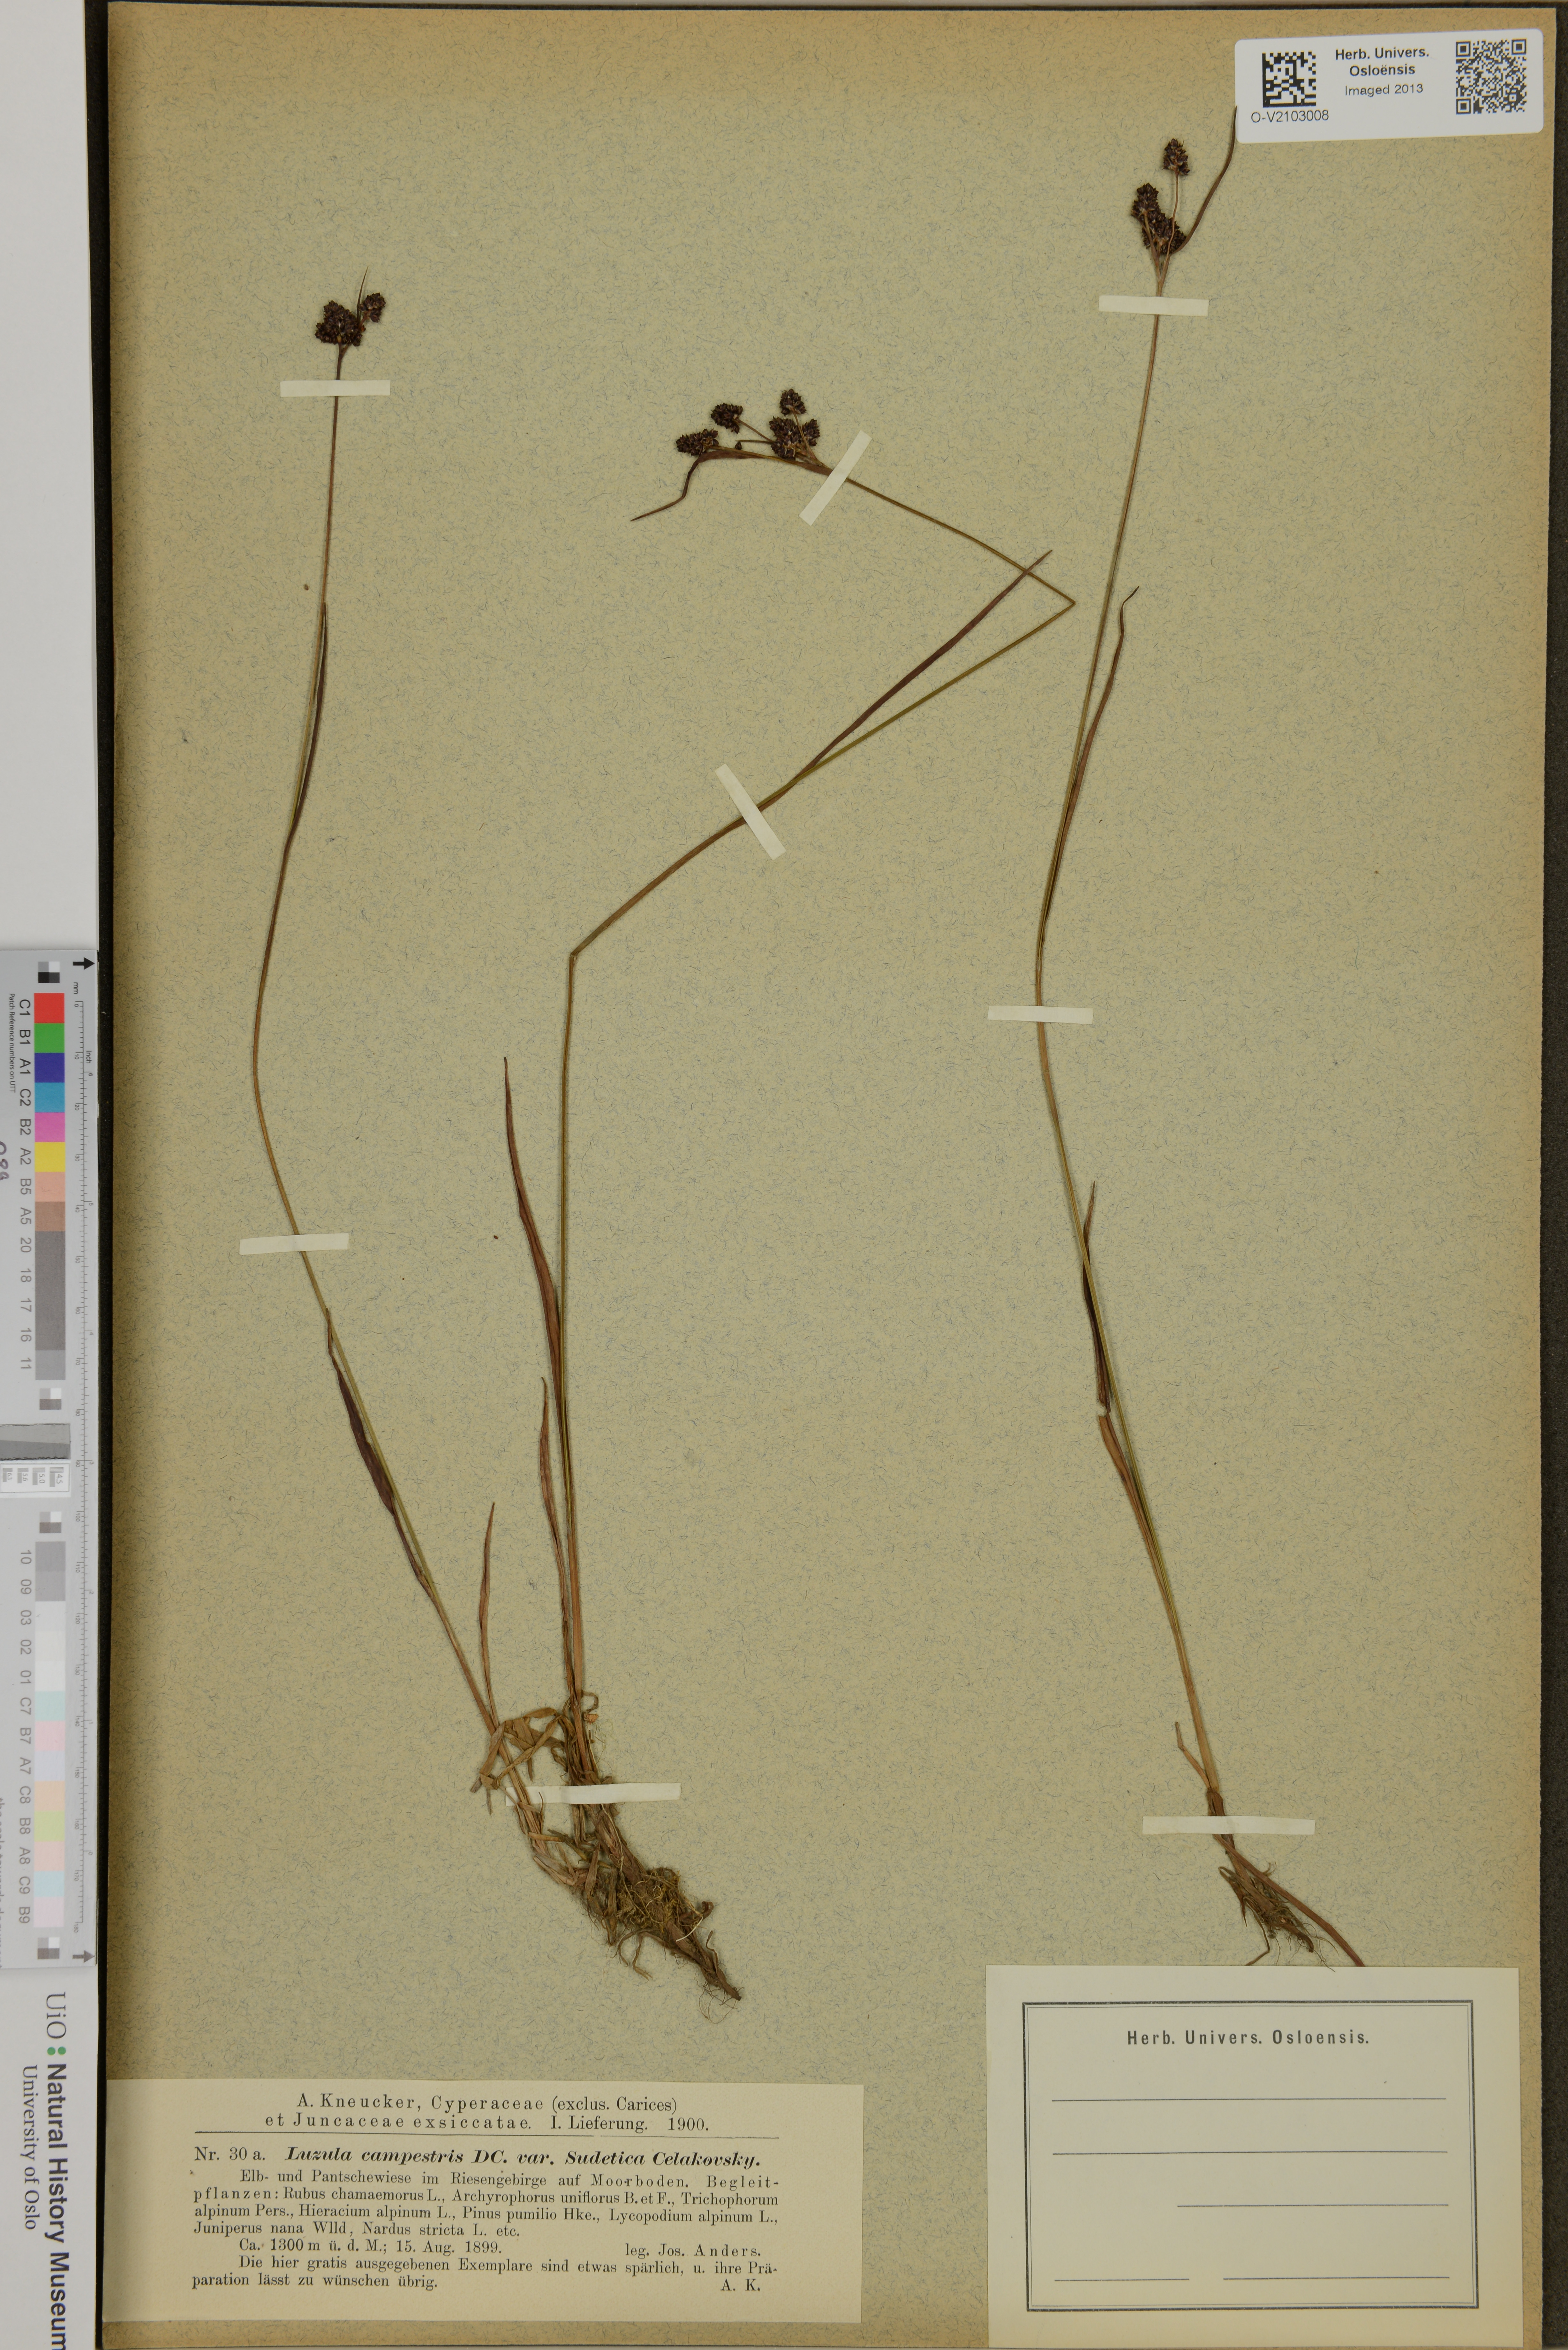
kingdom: Plantae
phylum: Tracheophyta
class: Liliopsida
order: Poales
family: Juncaceae
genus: Luzula
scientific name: Luzula campestris
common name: Field wood-rush
